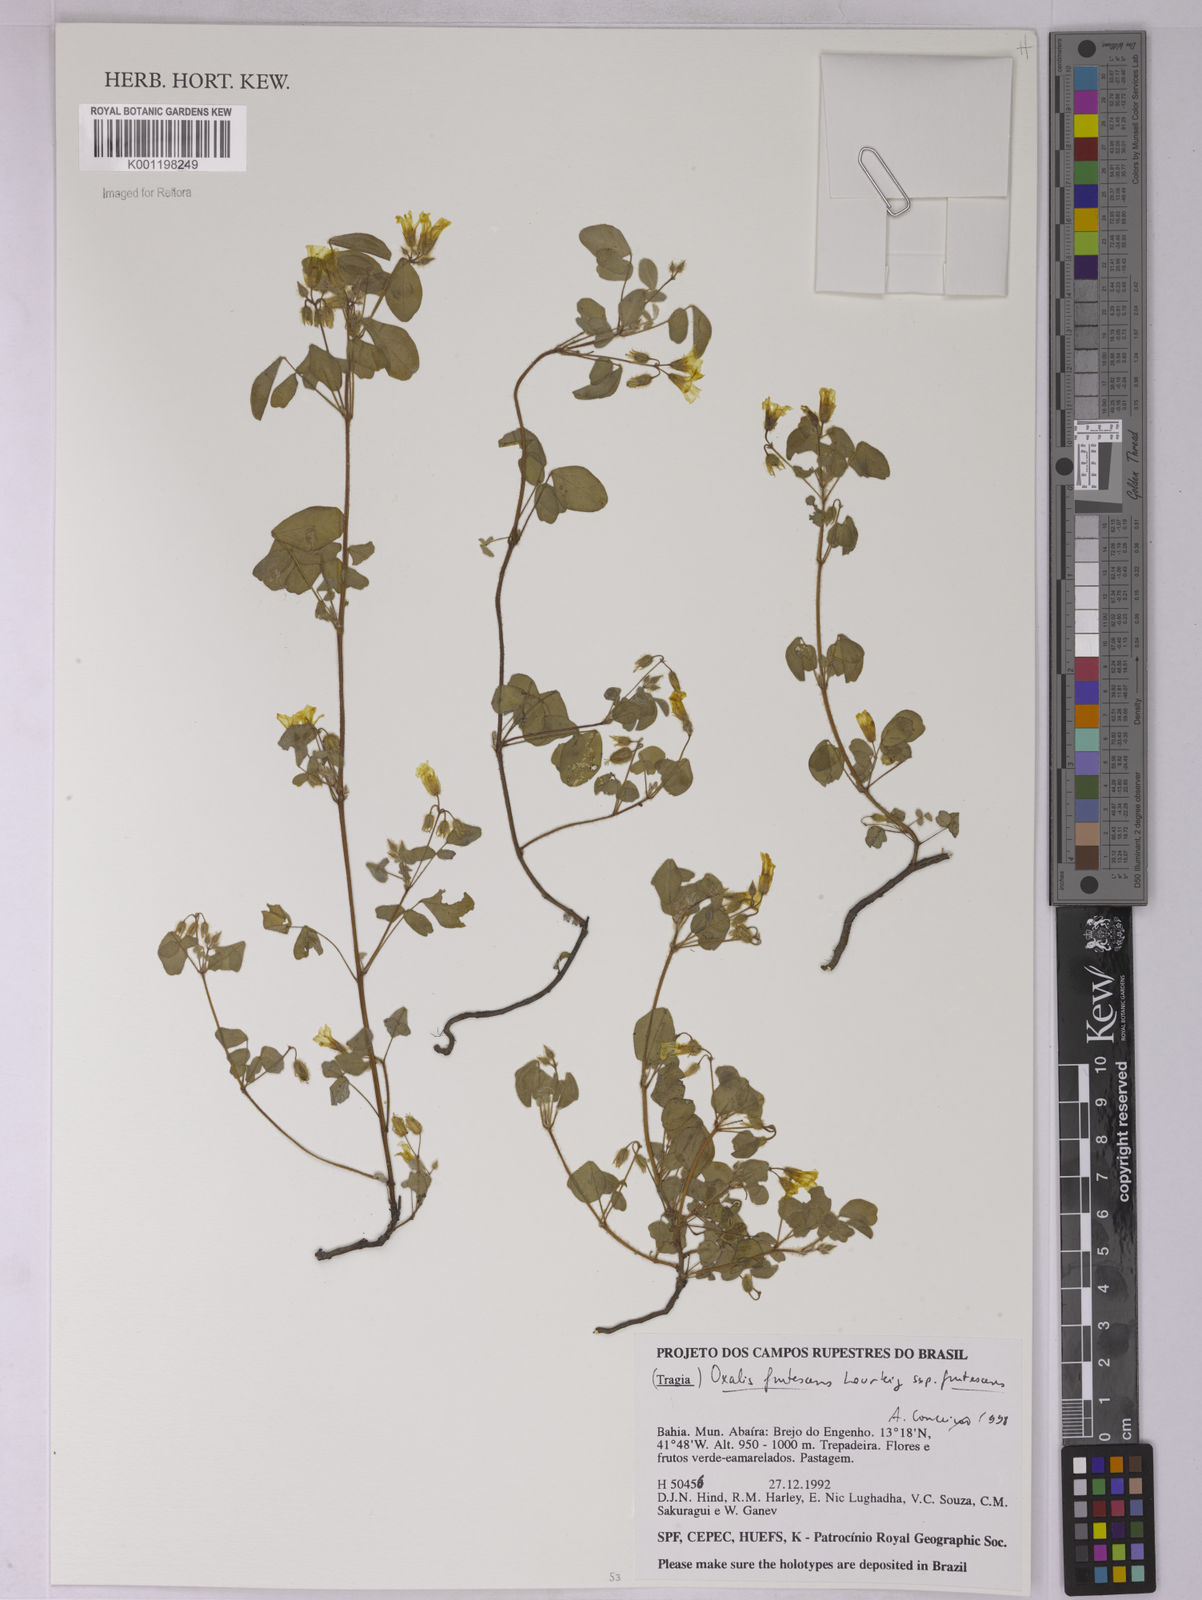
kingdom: Plantae
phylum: Tracheophyta
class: Magnoliopsida
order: Oxalidales
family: Oxalidaceae
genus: Oxalis
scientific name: Oxalis frutescens
